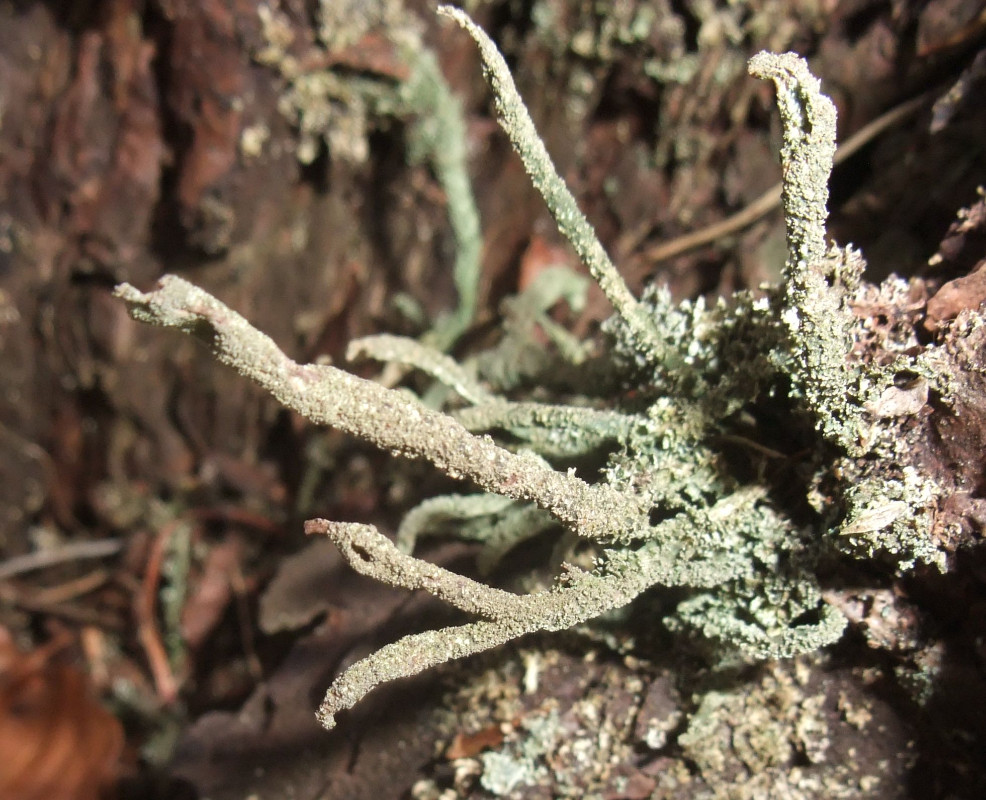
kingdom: Fungi
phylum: Ascomycota
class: Lecanoromycetes
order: Lecanorales
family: Cladoniaceae
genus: Cladonia
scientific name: Cladonia glauca
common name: grågrøn bægerlav
